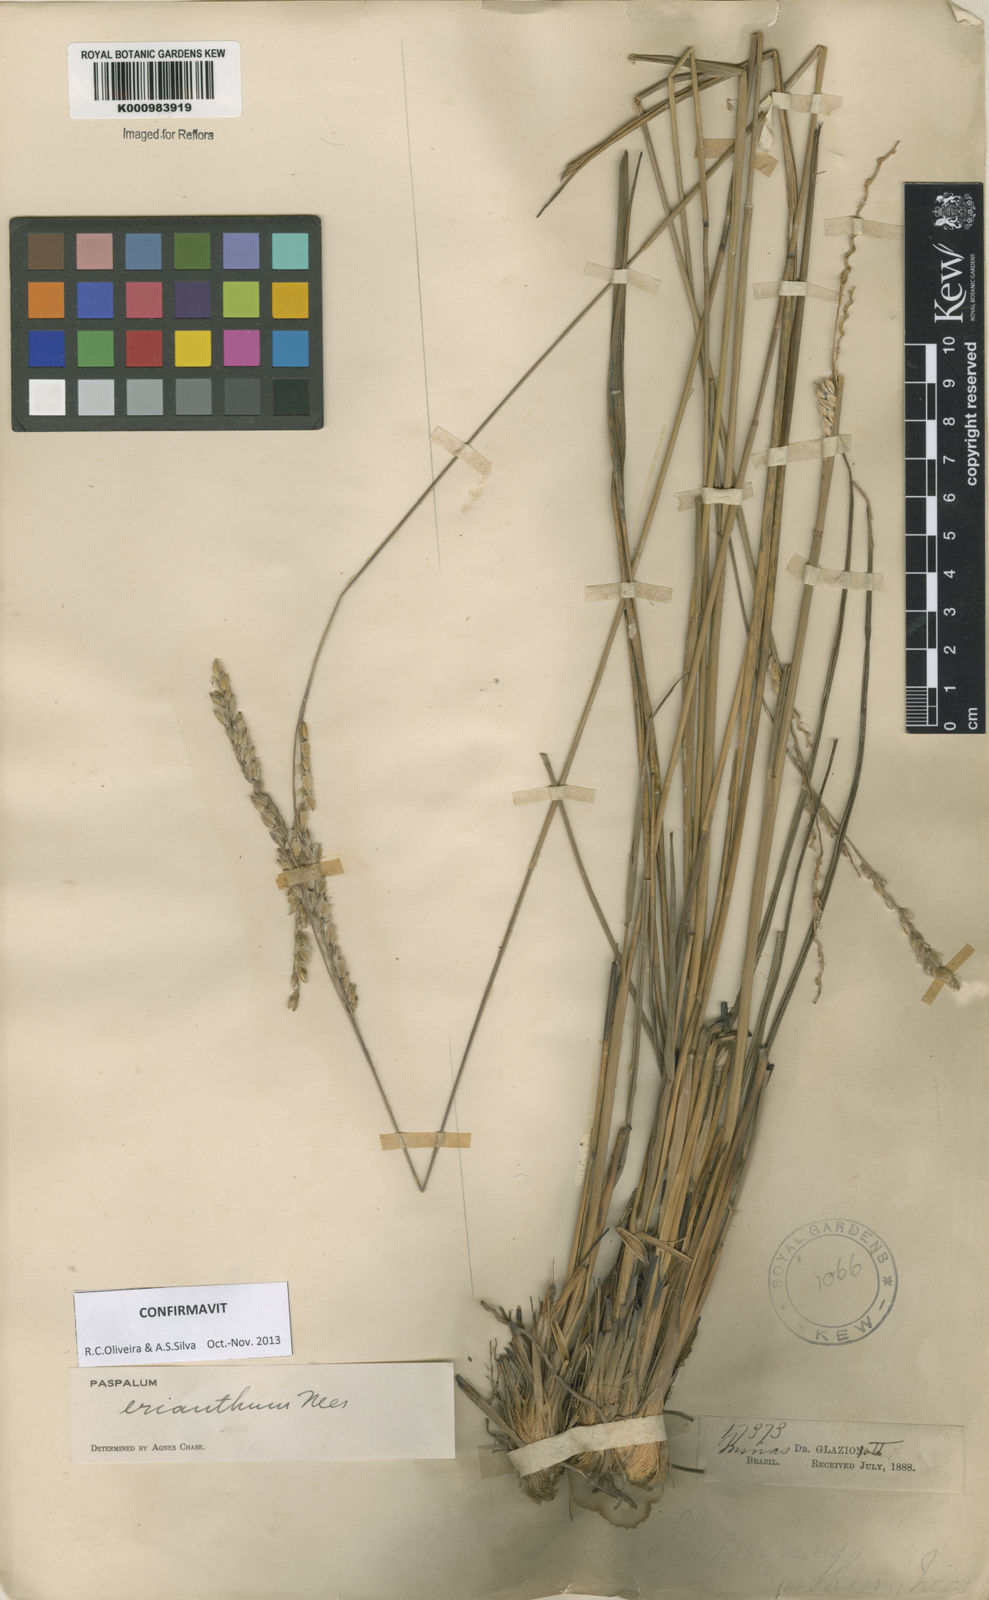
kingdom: Plantae
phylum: Tracheophyta
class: Liliopsida
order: Poales
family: Poaceae
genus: Paspalum
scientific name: Paspalum erianthum
